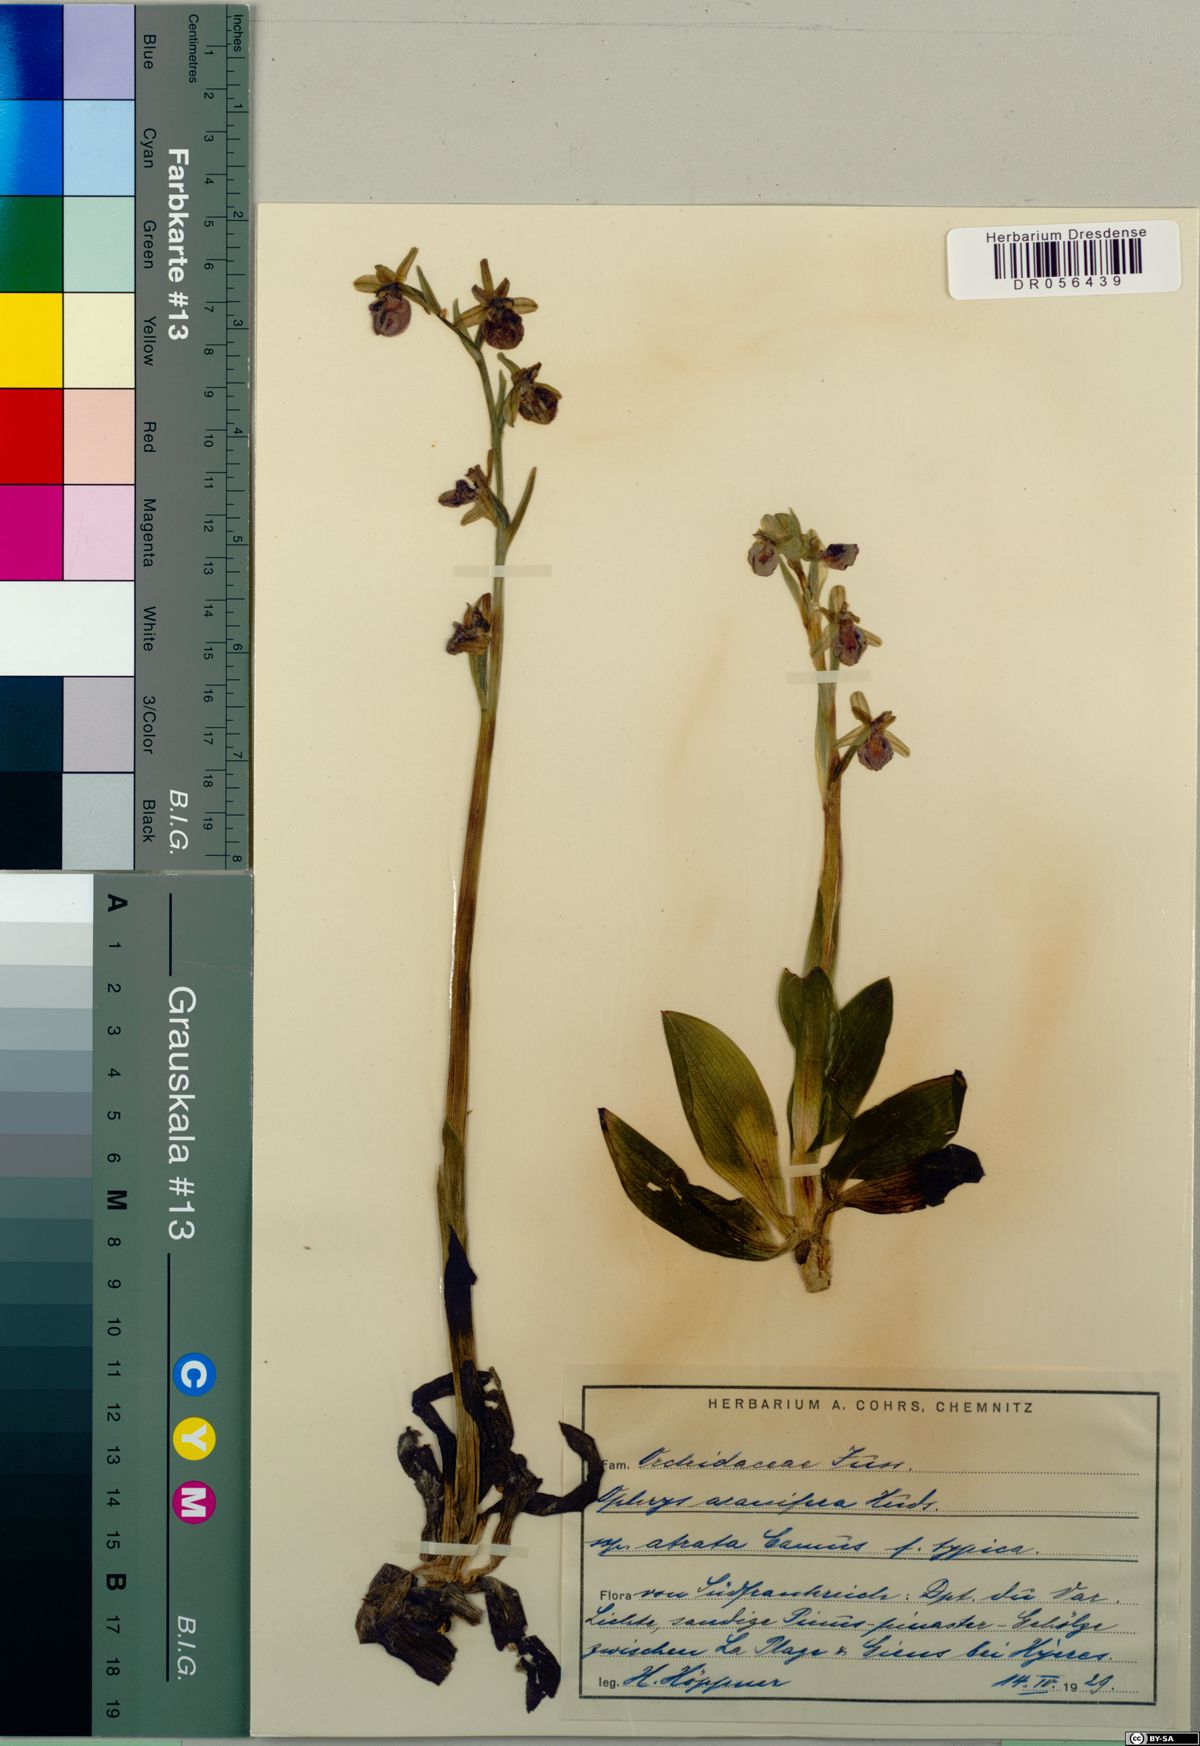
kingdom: Plantae
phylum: Tracheophyta
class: Liliopsida
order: Asparagales
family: Orchidaceae
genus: Ophrys
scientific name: Ophrys sphegodes
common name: Early spider-orchid
